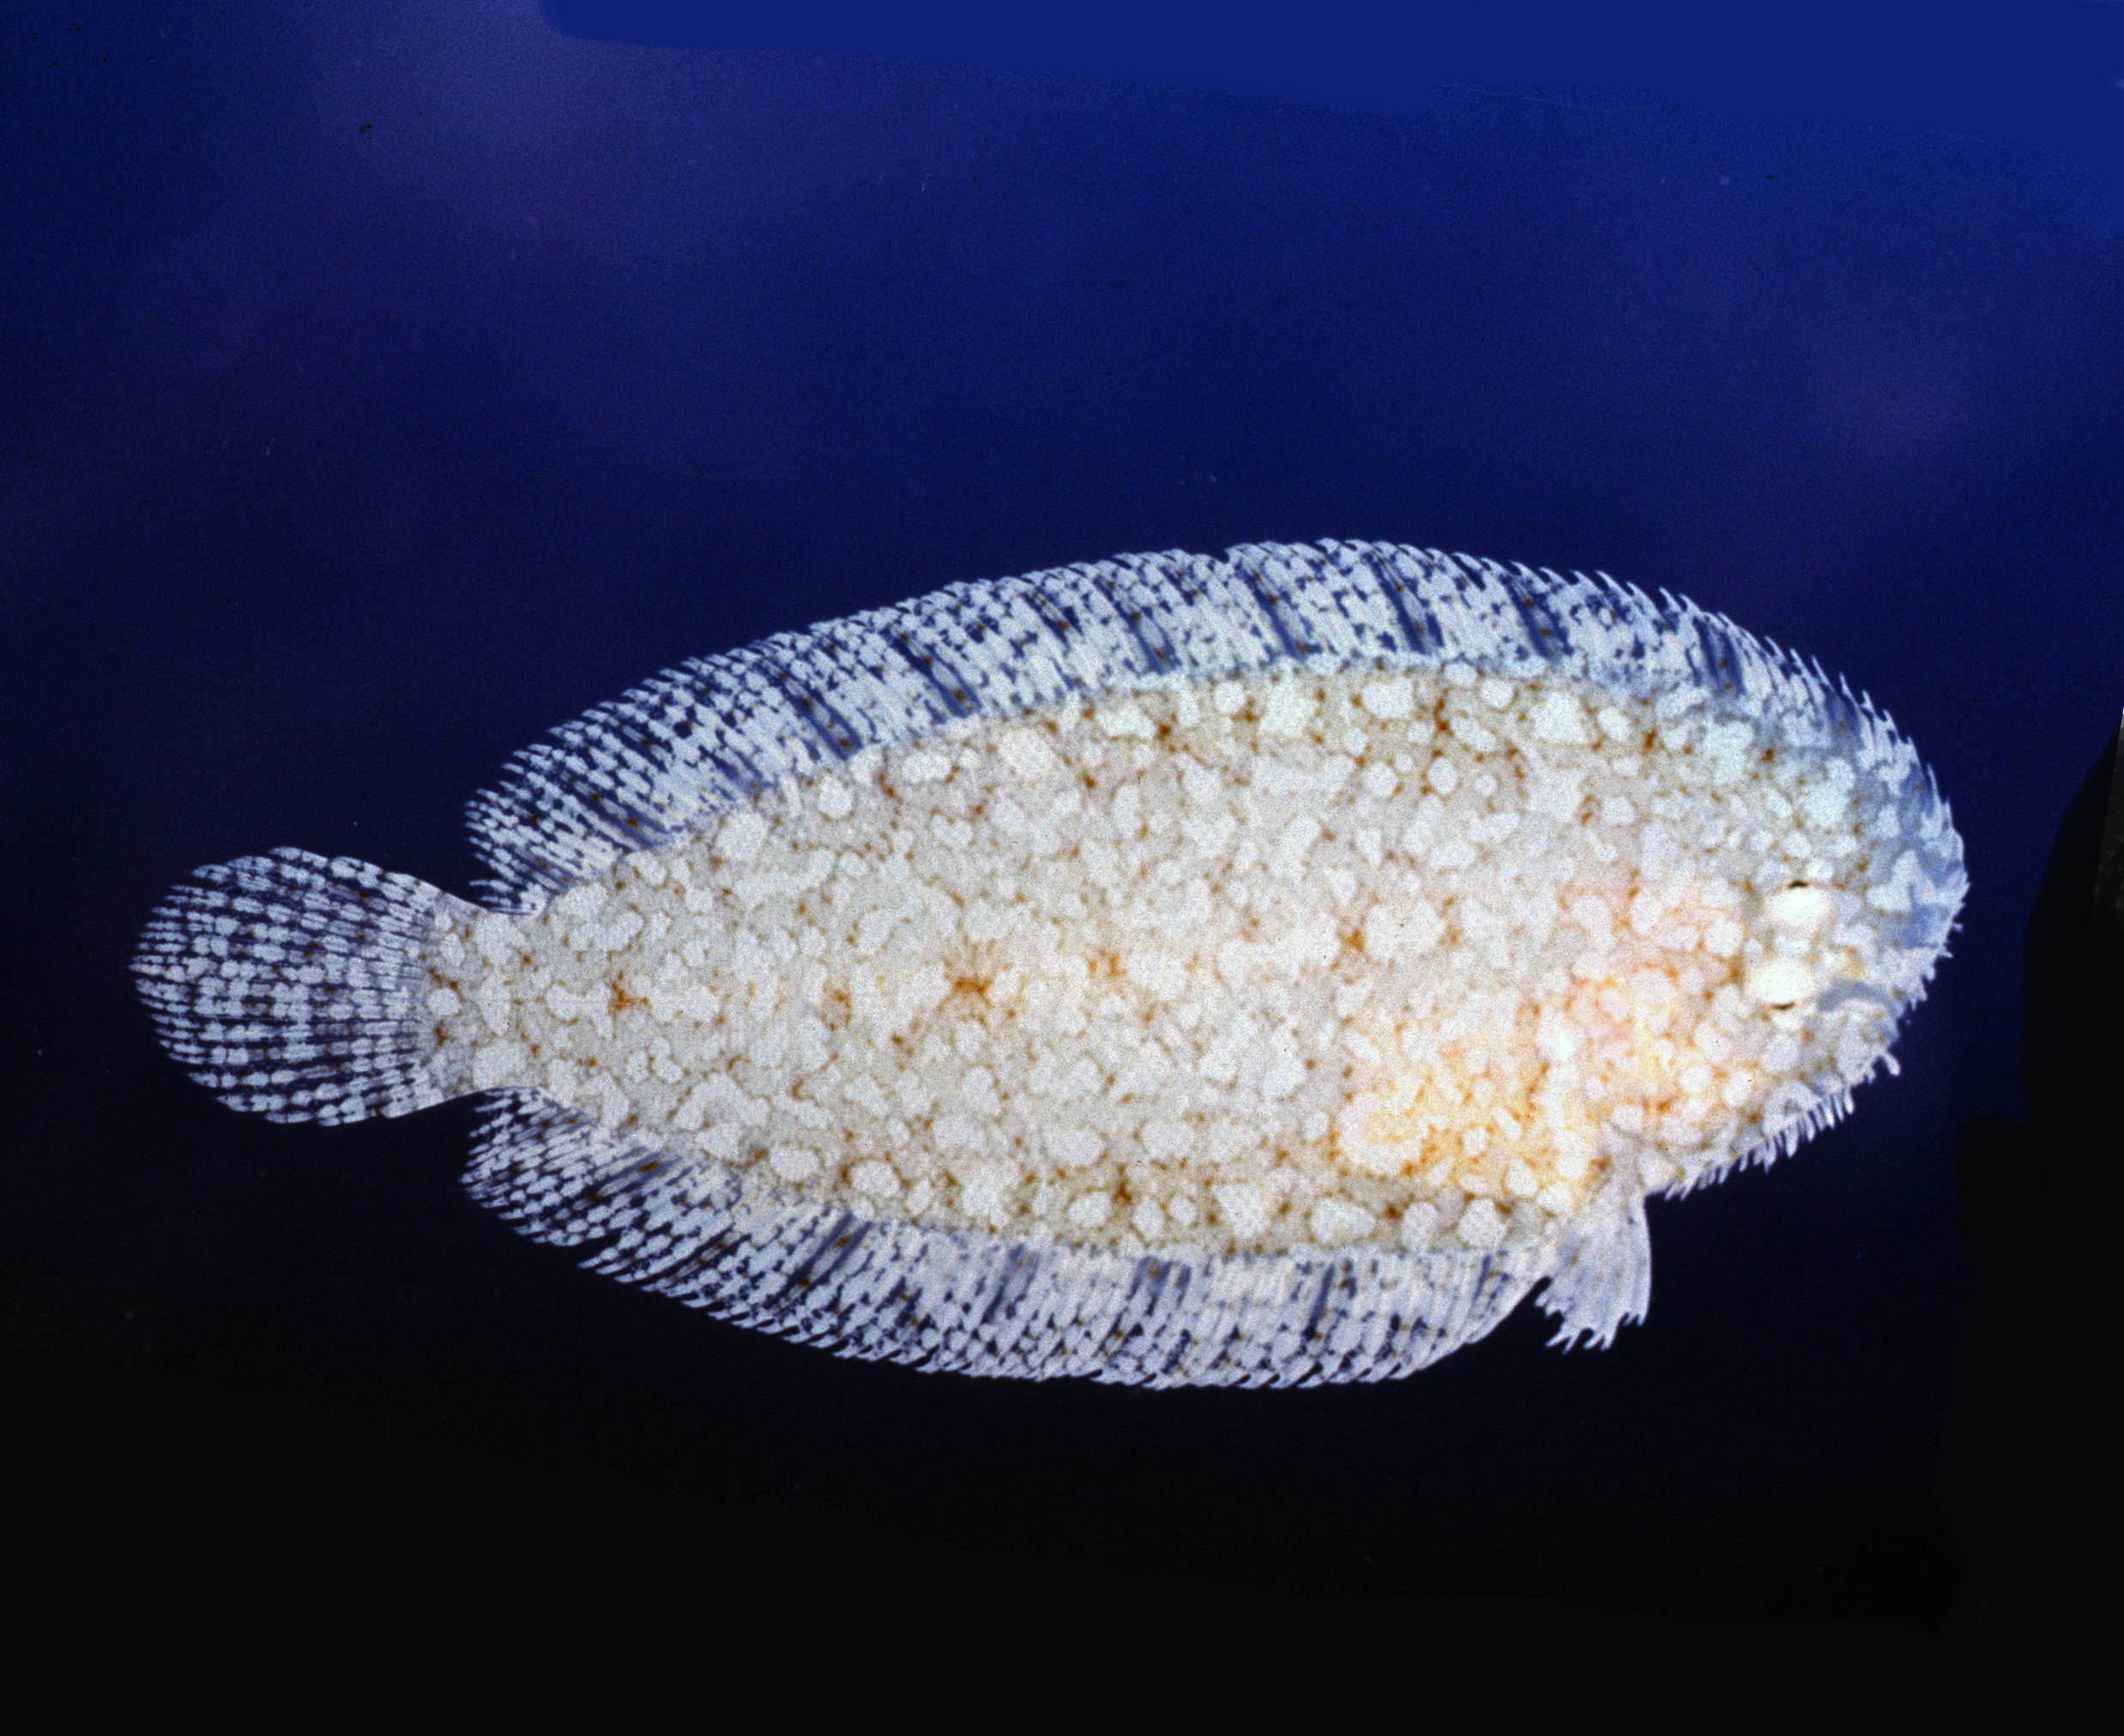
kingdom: Animalia
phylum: Chordata
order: Pleuronectiformes
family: Soleidae
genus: Aseraggodes
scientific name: Aseraggodes diringeri
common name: Diringer's sole
